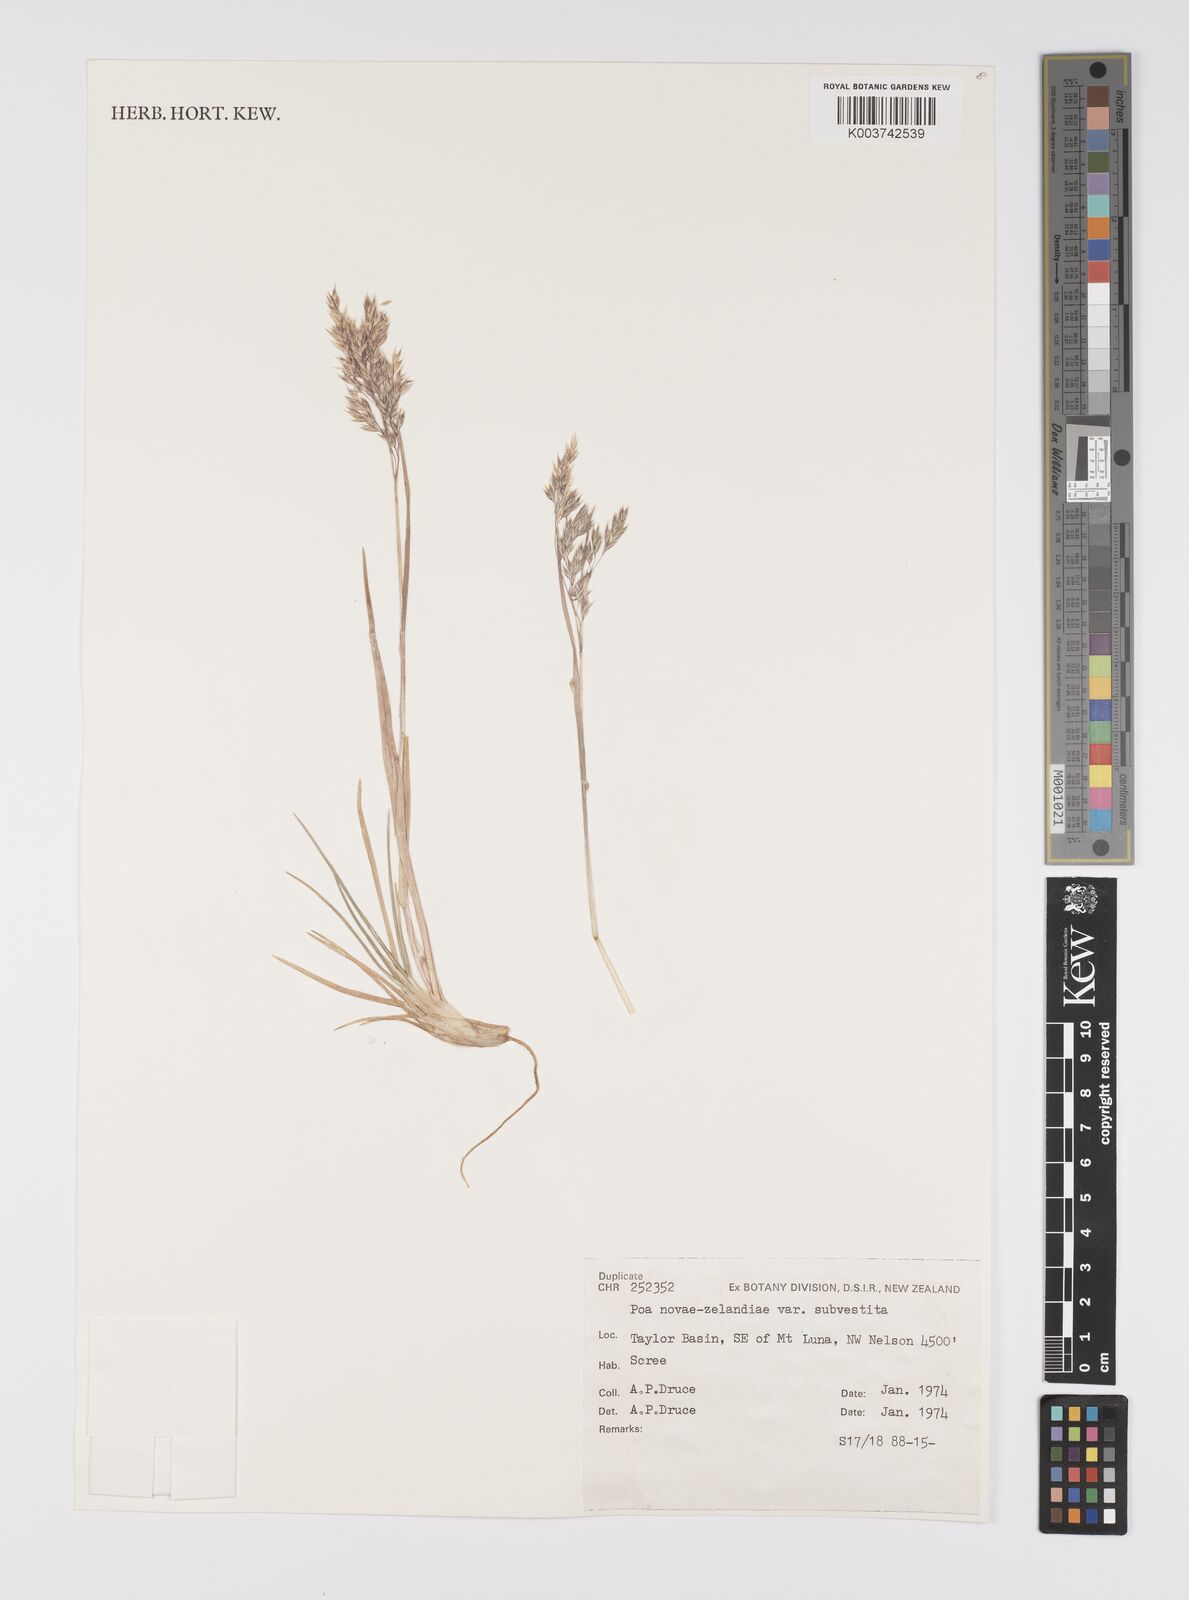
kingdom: Plantae
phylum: Tracheophyta
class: Liliopsida
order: Poales
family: Poaceae
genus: Poa
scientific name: Poa novae-zelandiae
